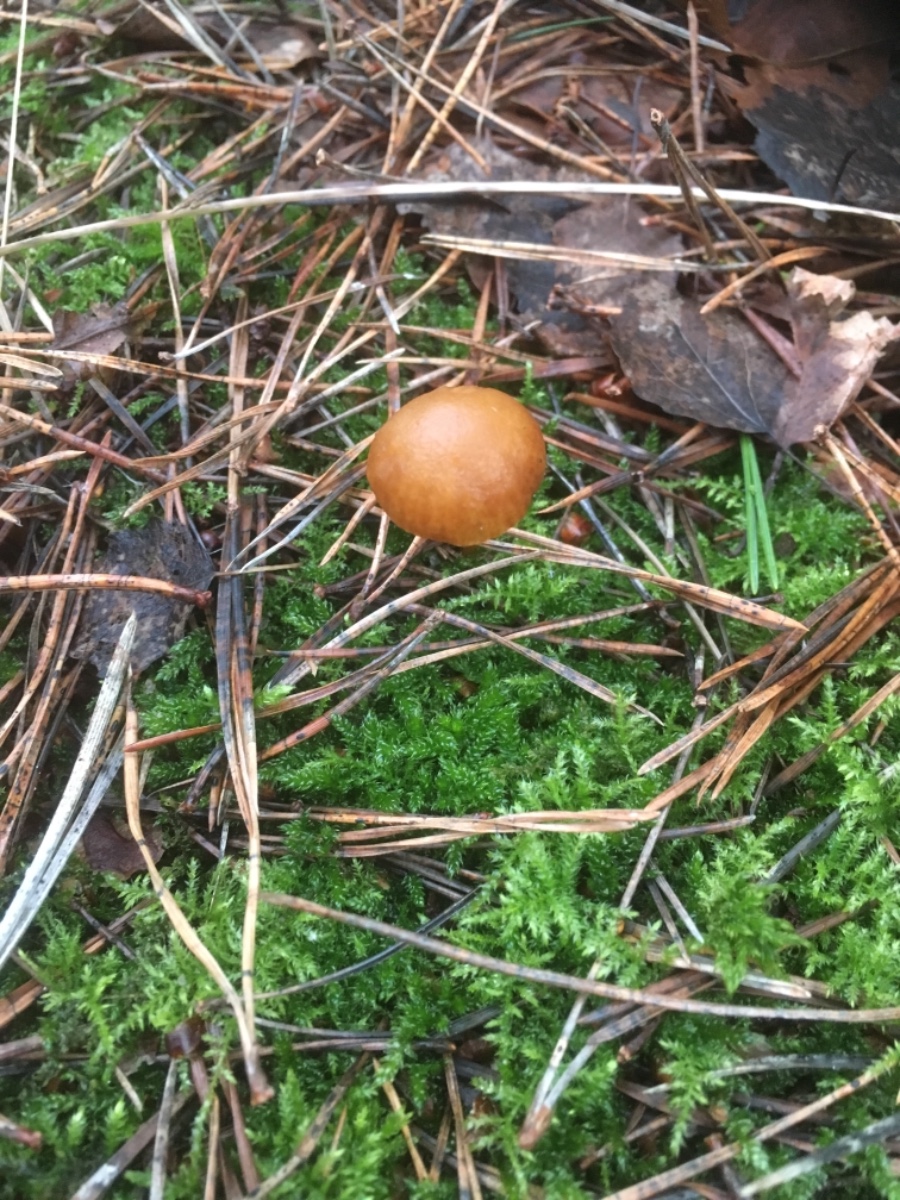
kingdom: Fungi
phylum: Basidiomycota
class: Agaricomycetes
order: Agaricales
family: Hymenogastraceae
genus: Galerina
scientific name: Galerina
